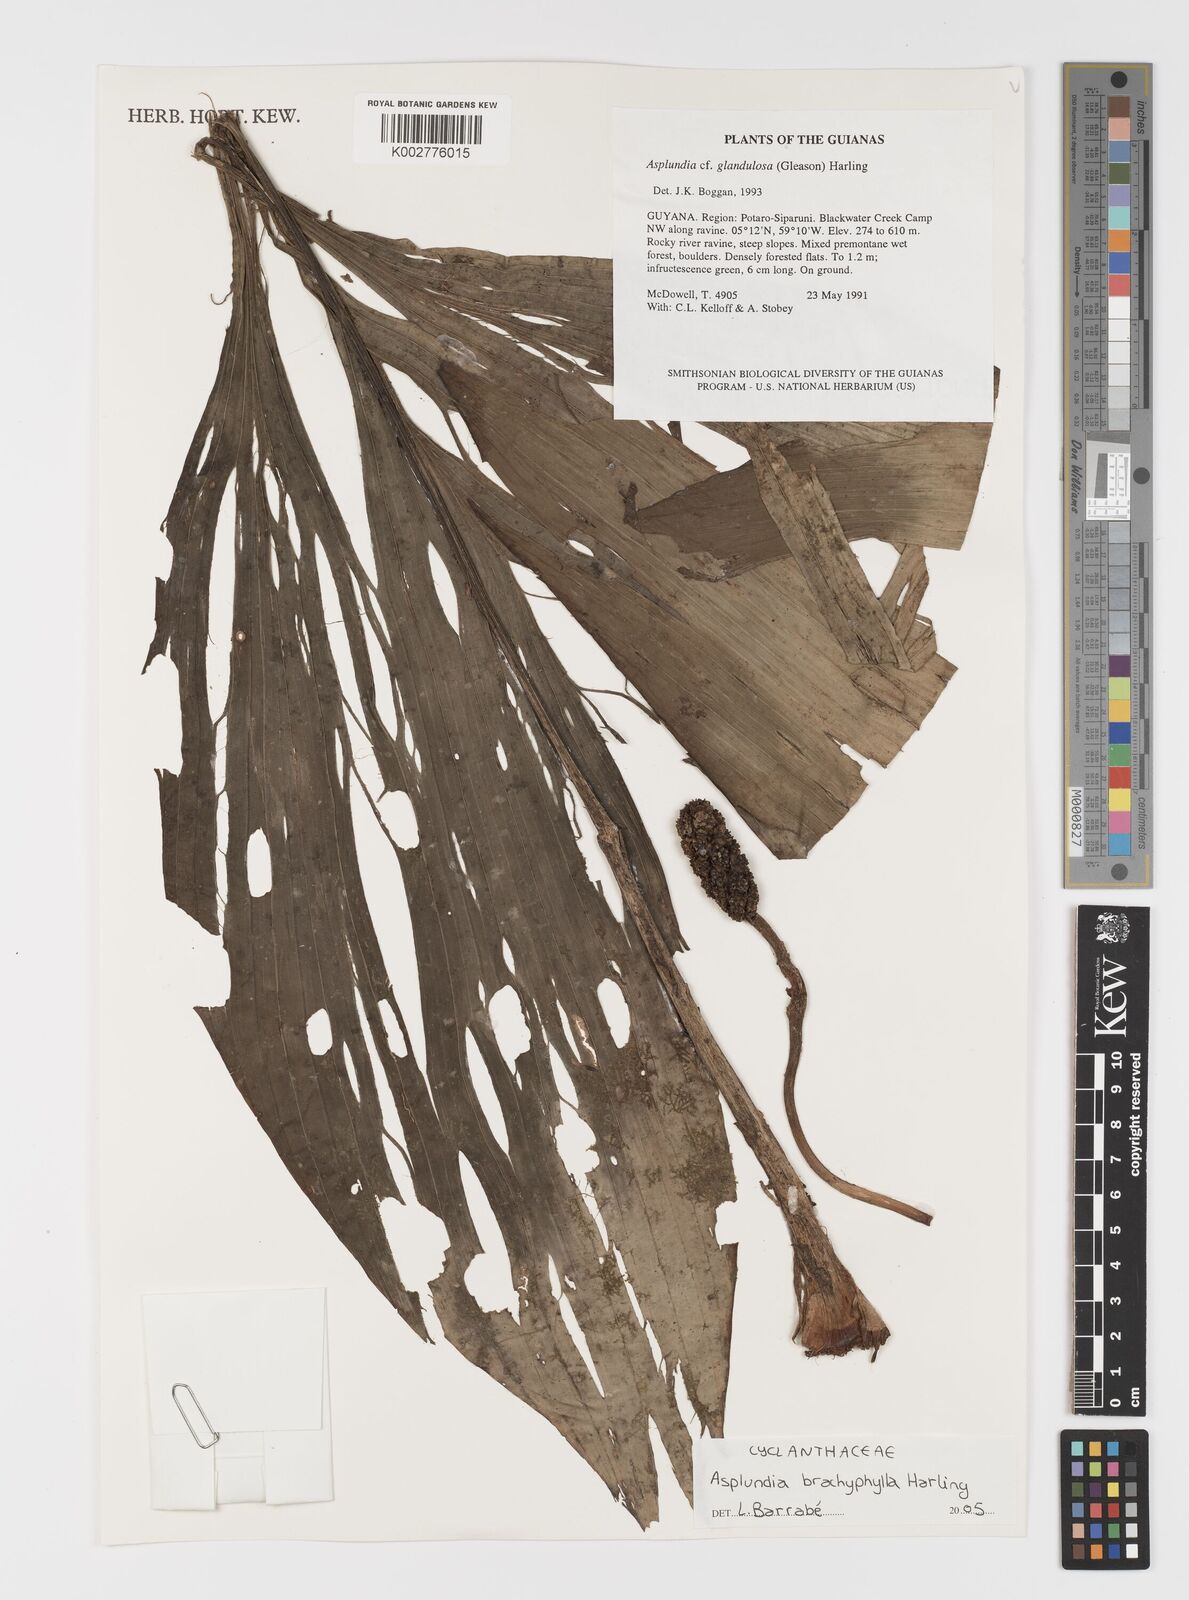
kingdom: Plantae
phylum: Tracheophyta
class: Liliopsida
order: Pandanales
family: Cyclanthaceae
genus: Asplundia
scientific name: Asplundia brachyphylla
